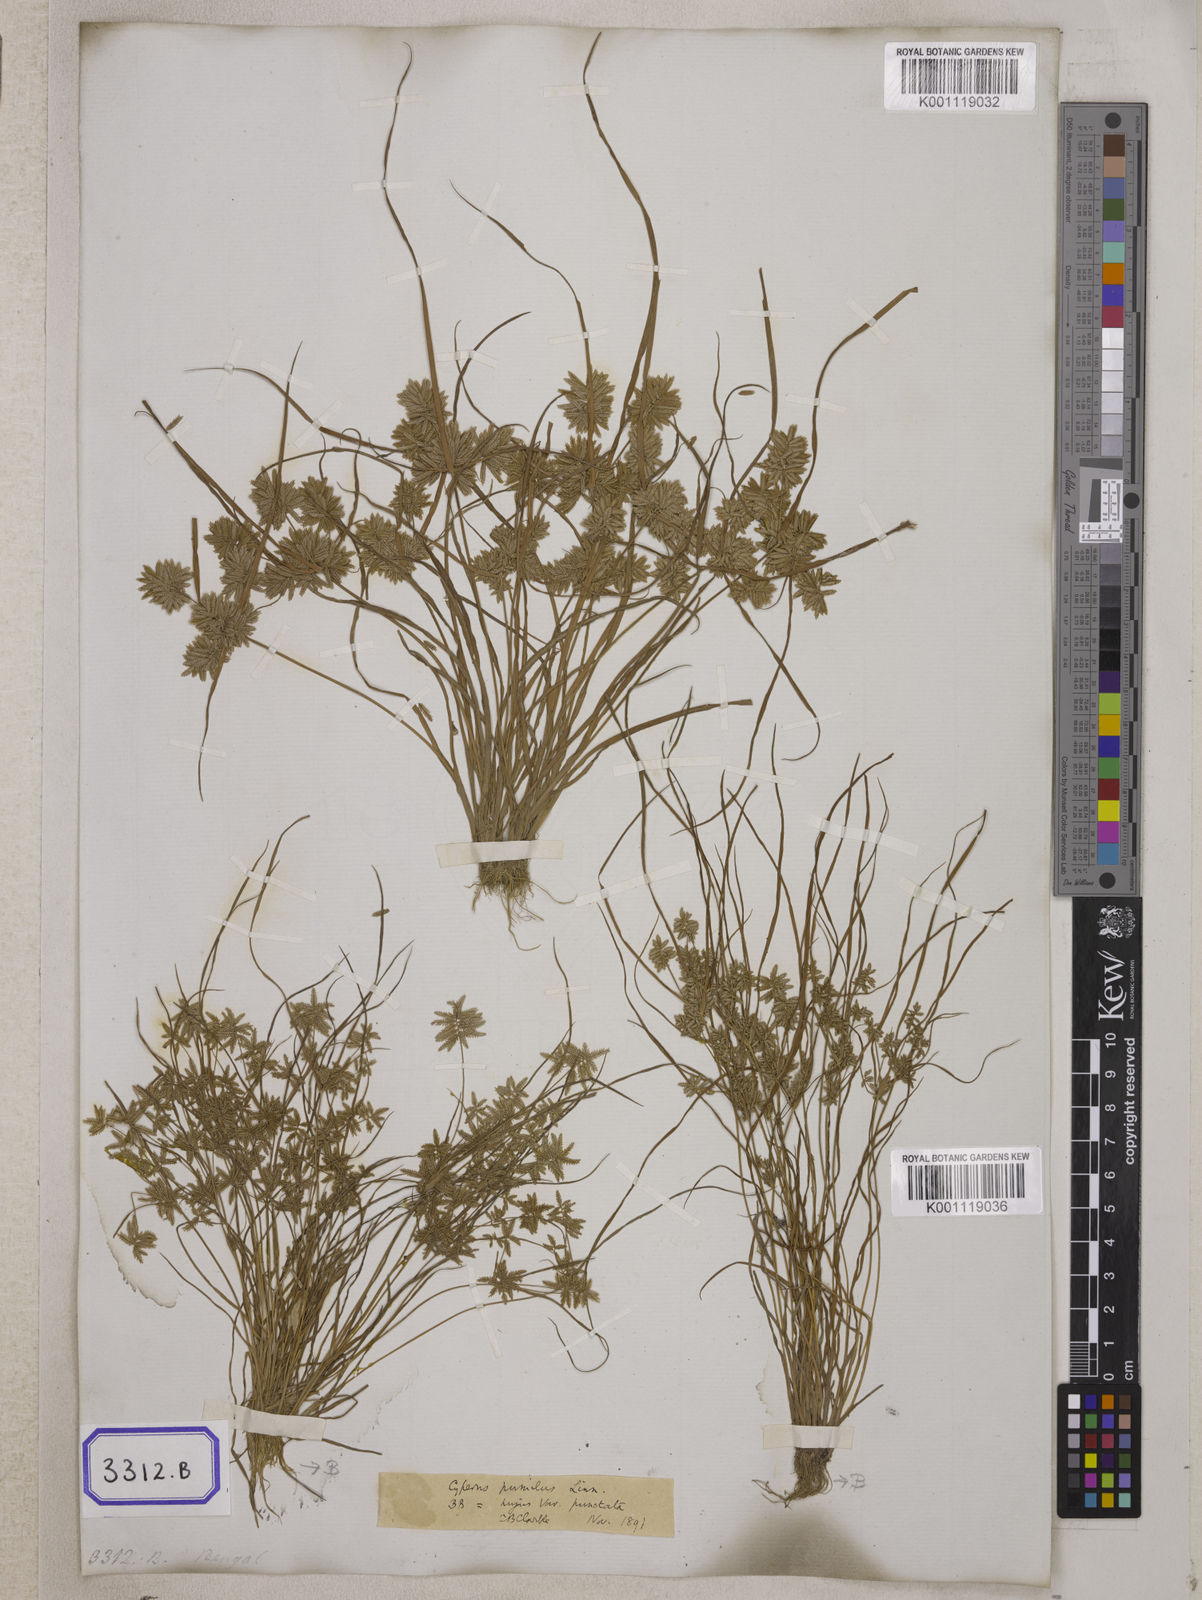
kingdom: Plantae
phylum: Tracheophyta
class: Liliopsida
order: Poales
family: Cyperaceae
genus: Cyperus
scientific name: Cyperus
